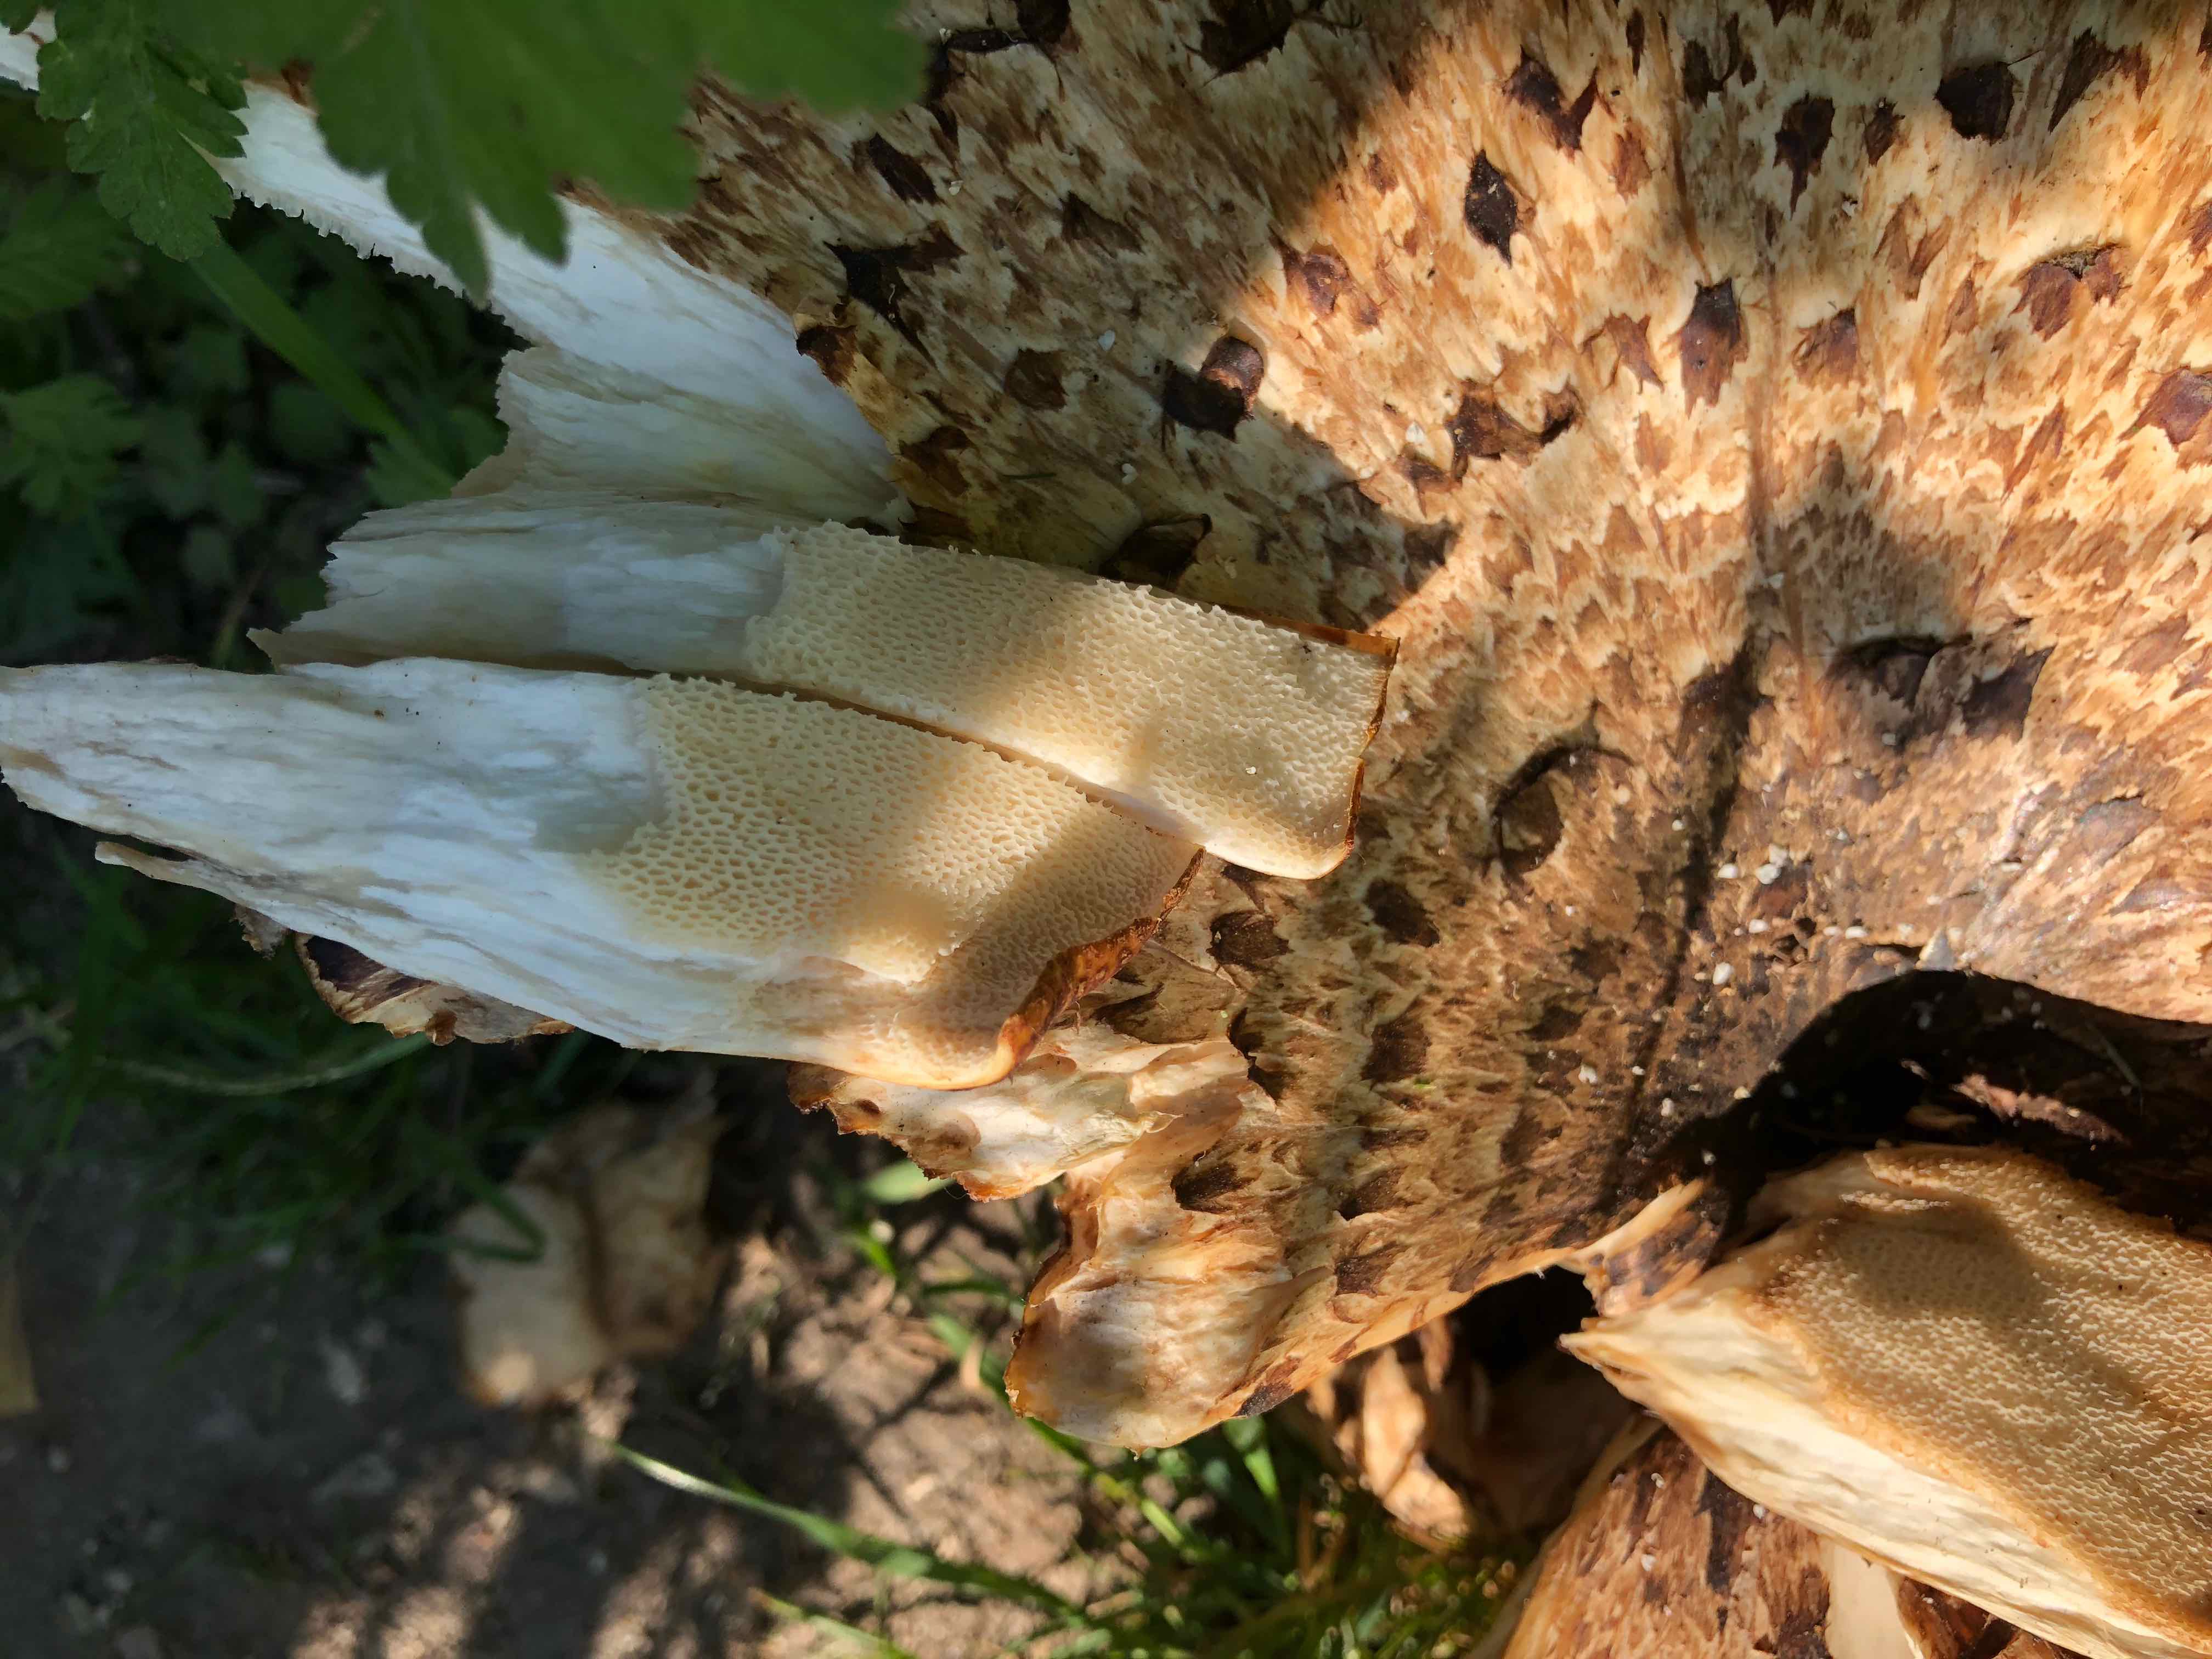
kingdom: Fungi
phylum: Basidiomycota
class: Agaricomycetes
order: Polyporales
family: Polyporaceae
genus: Cerioporus
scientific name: Cerioporus squamosus
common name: skællet stilkporesvamp
